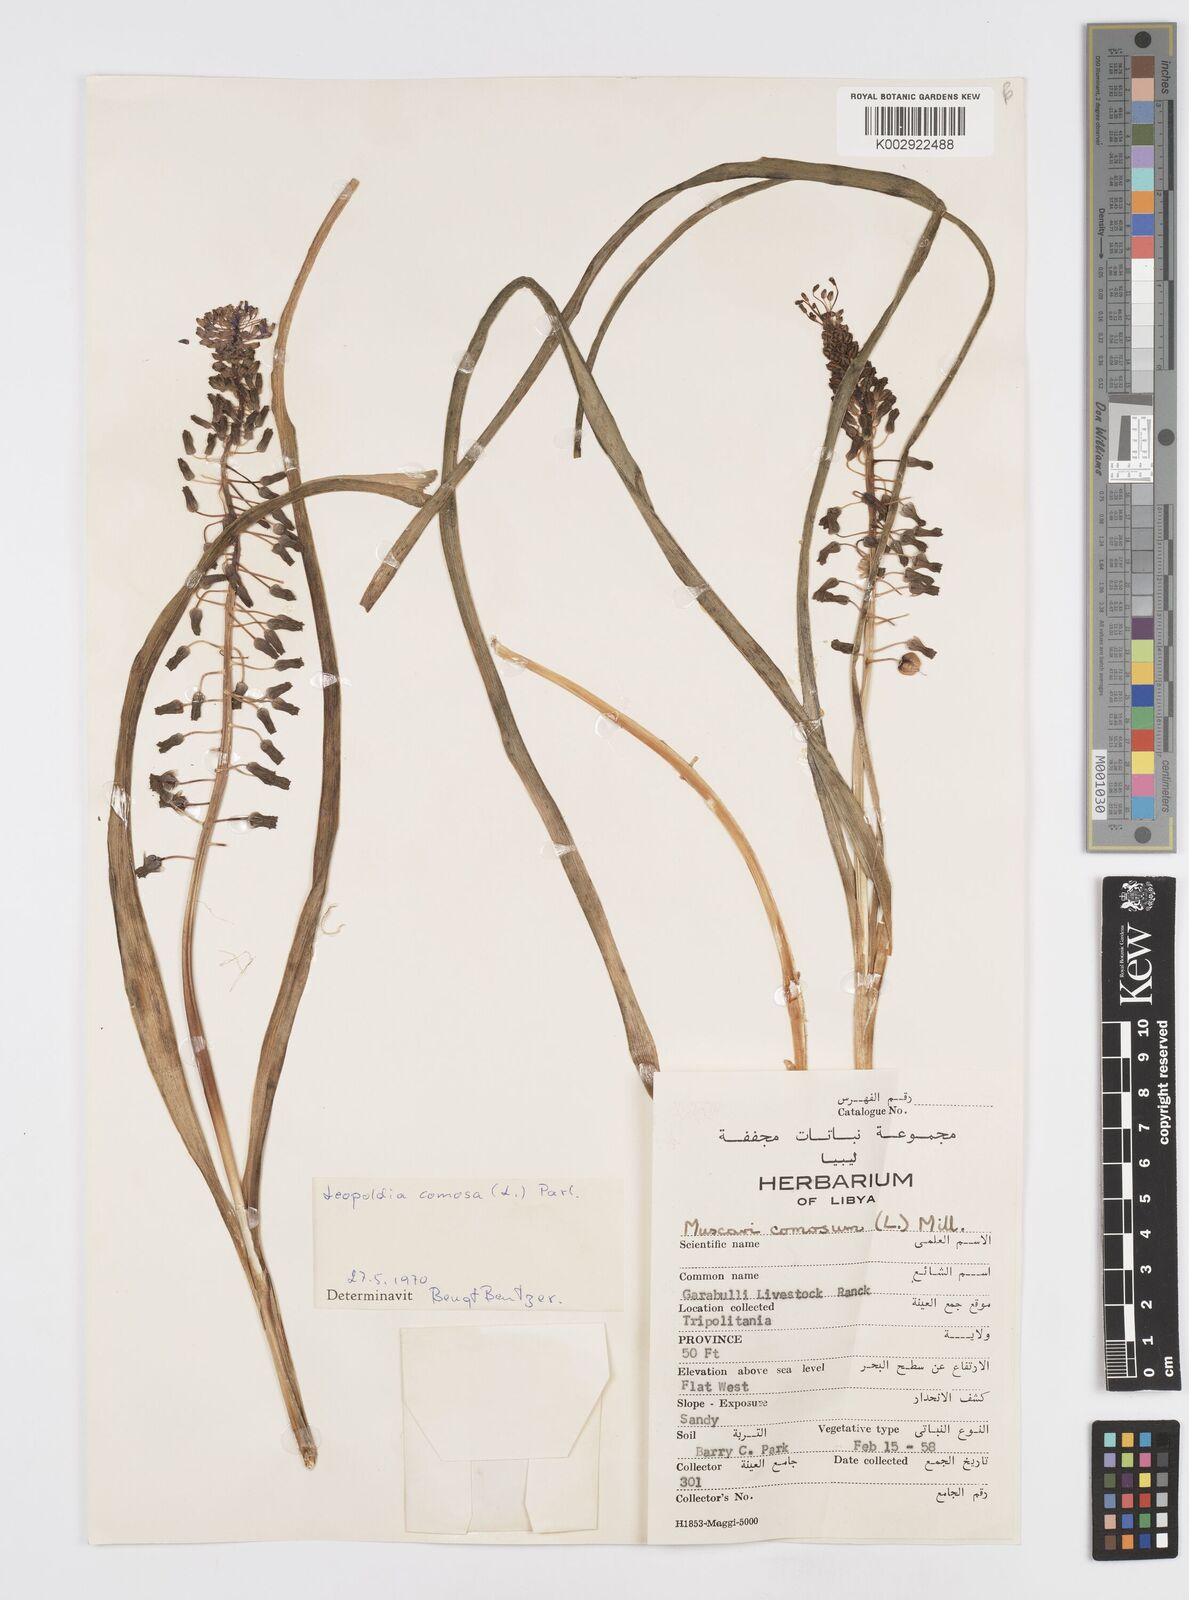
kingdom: Plantae
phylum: Tracheophyta
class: Liliopsida
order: Asparagales
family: Asparagaceae
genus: Muscari
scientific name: Muscari comosum
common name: Tassel hyacinth
